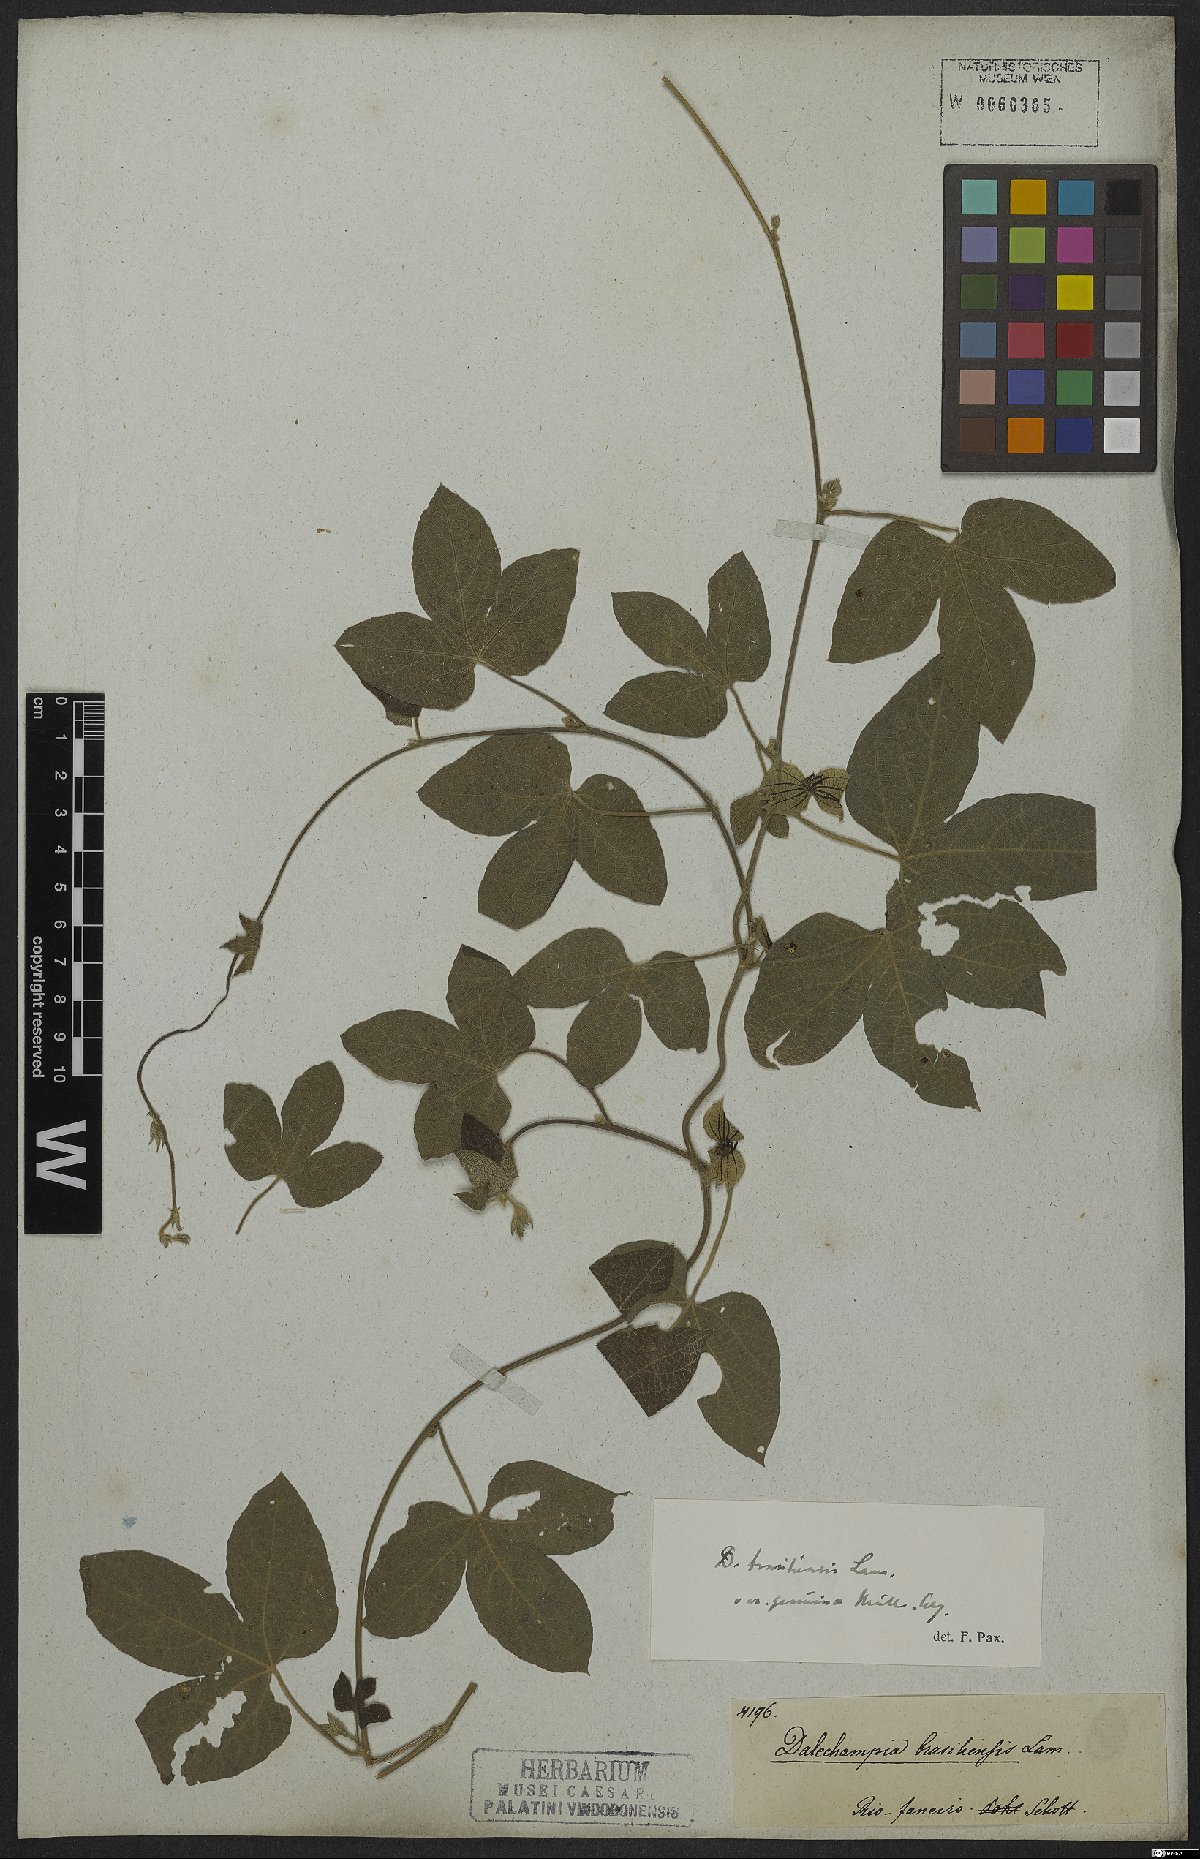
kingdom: Plantae
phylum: Tracheophyta
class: Magnoliopsida
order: Malpighiales
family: Euphorbiaceae
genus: Dalechampia
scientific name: Dalechampia brasiliensis
